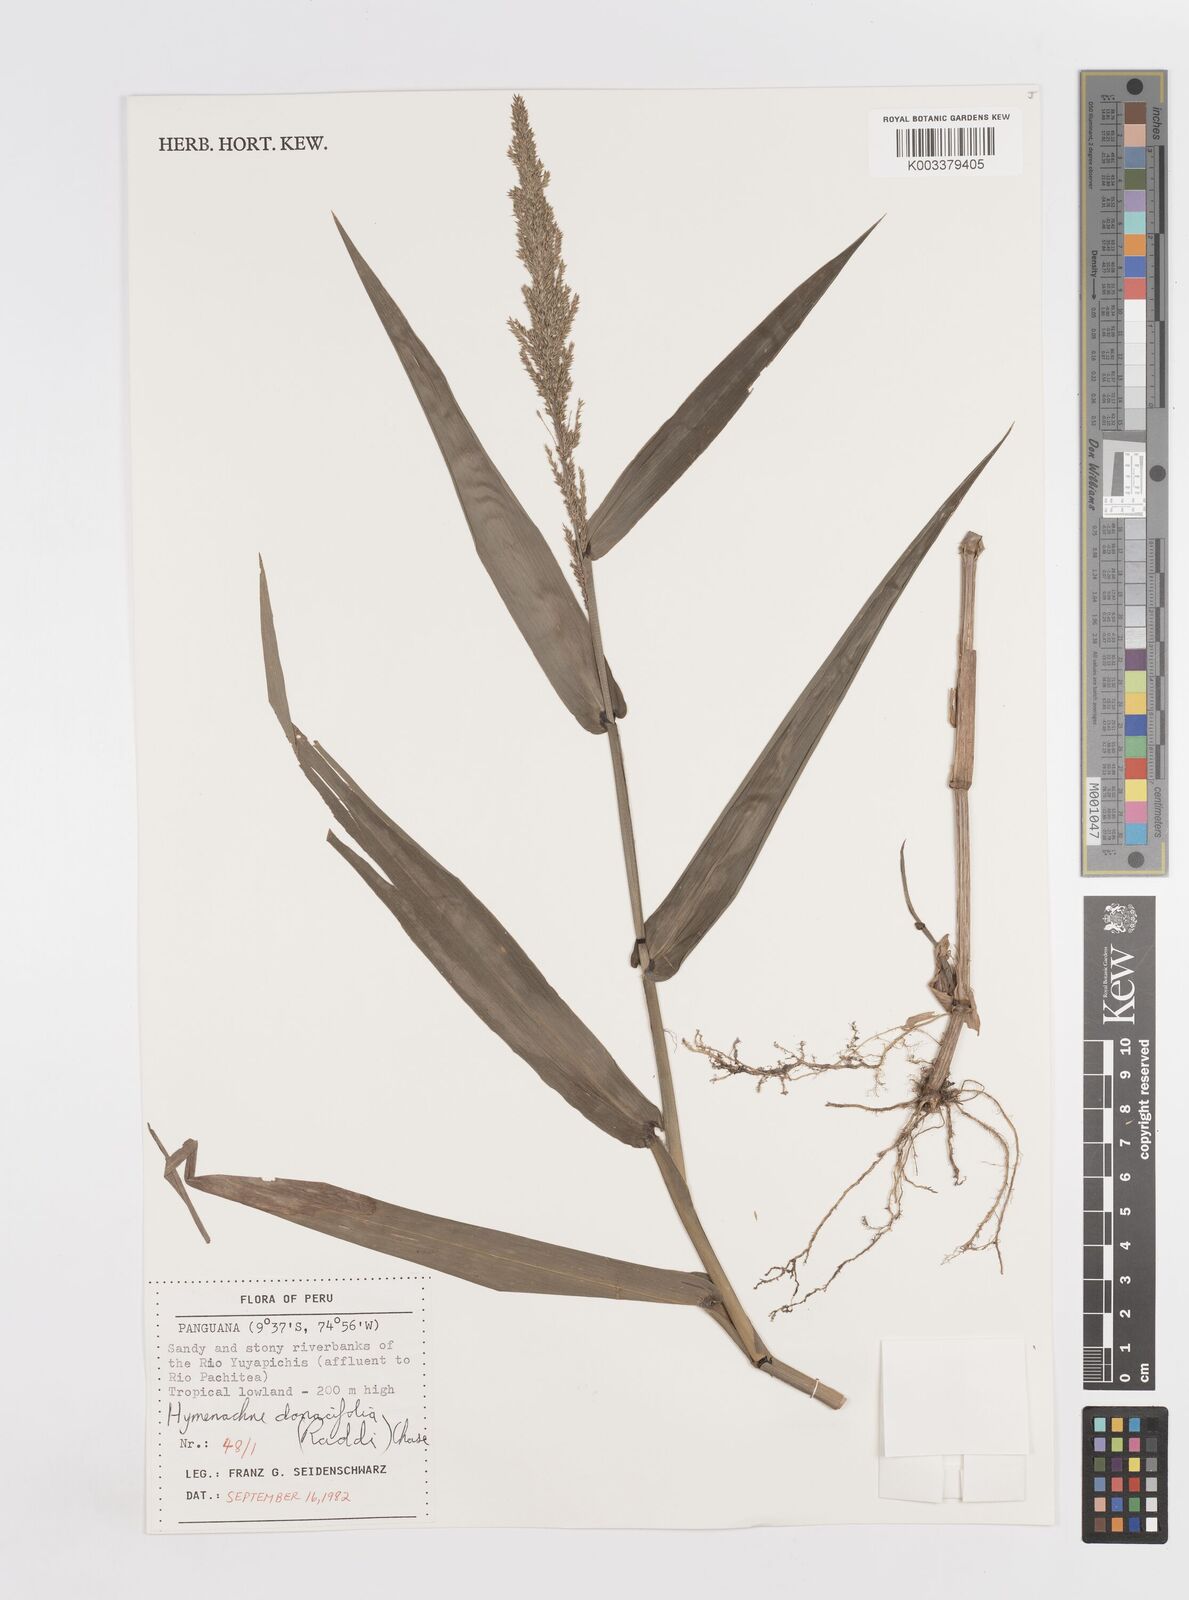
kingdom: Plantae
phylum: Tracheophyta
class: Liliopsida
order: Poales
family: Poaceae
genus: Hymenachne
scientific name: Hymenachne donacifolia
